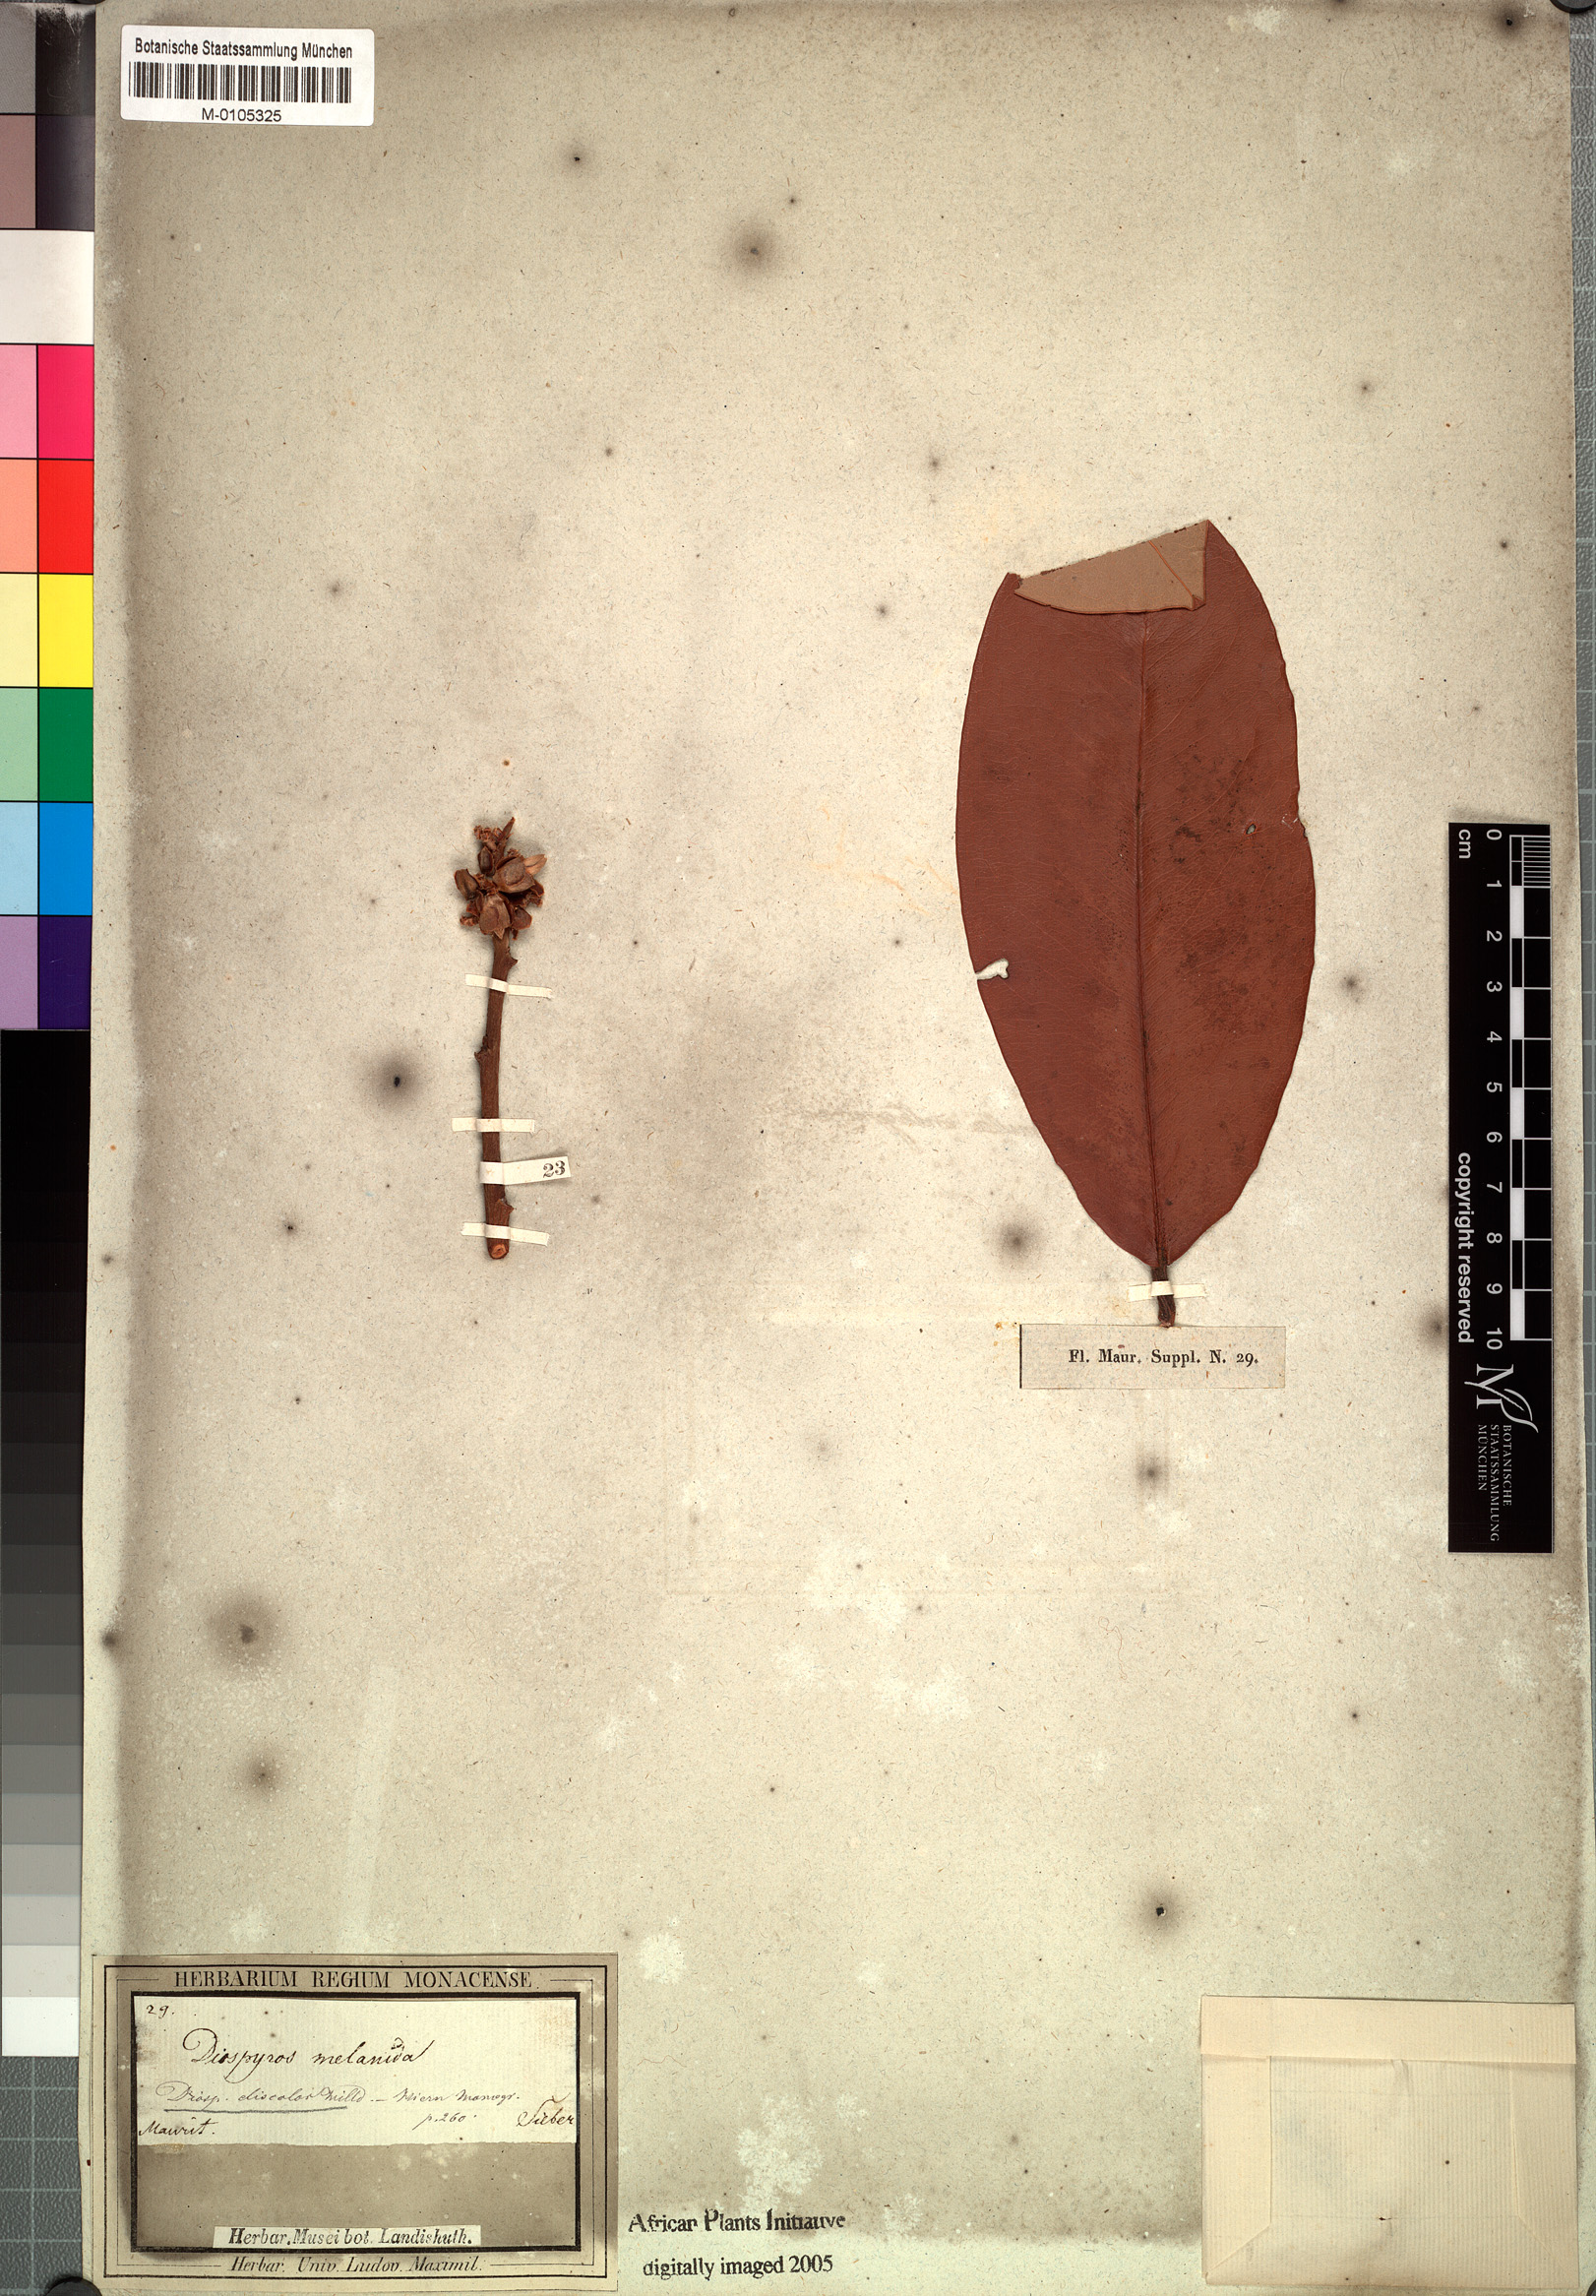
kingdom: Plantae
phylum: Tracheophyta
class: Magnoliopsida
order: Ericales
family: Ebenaceae
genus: Diospyros
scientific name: Diospyros blancoi
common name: Mabola-tree
